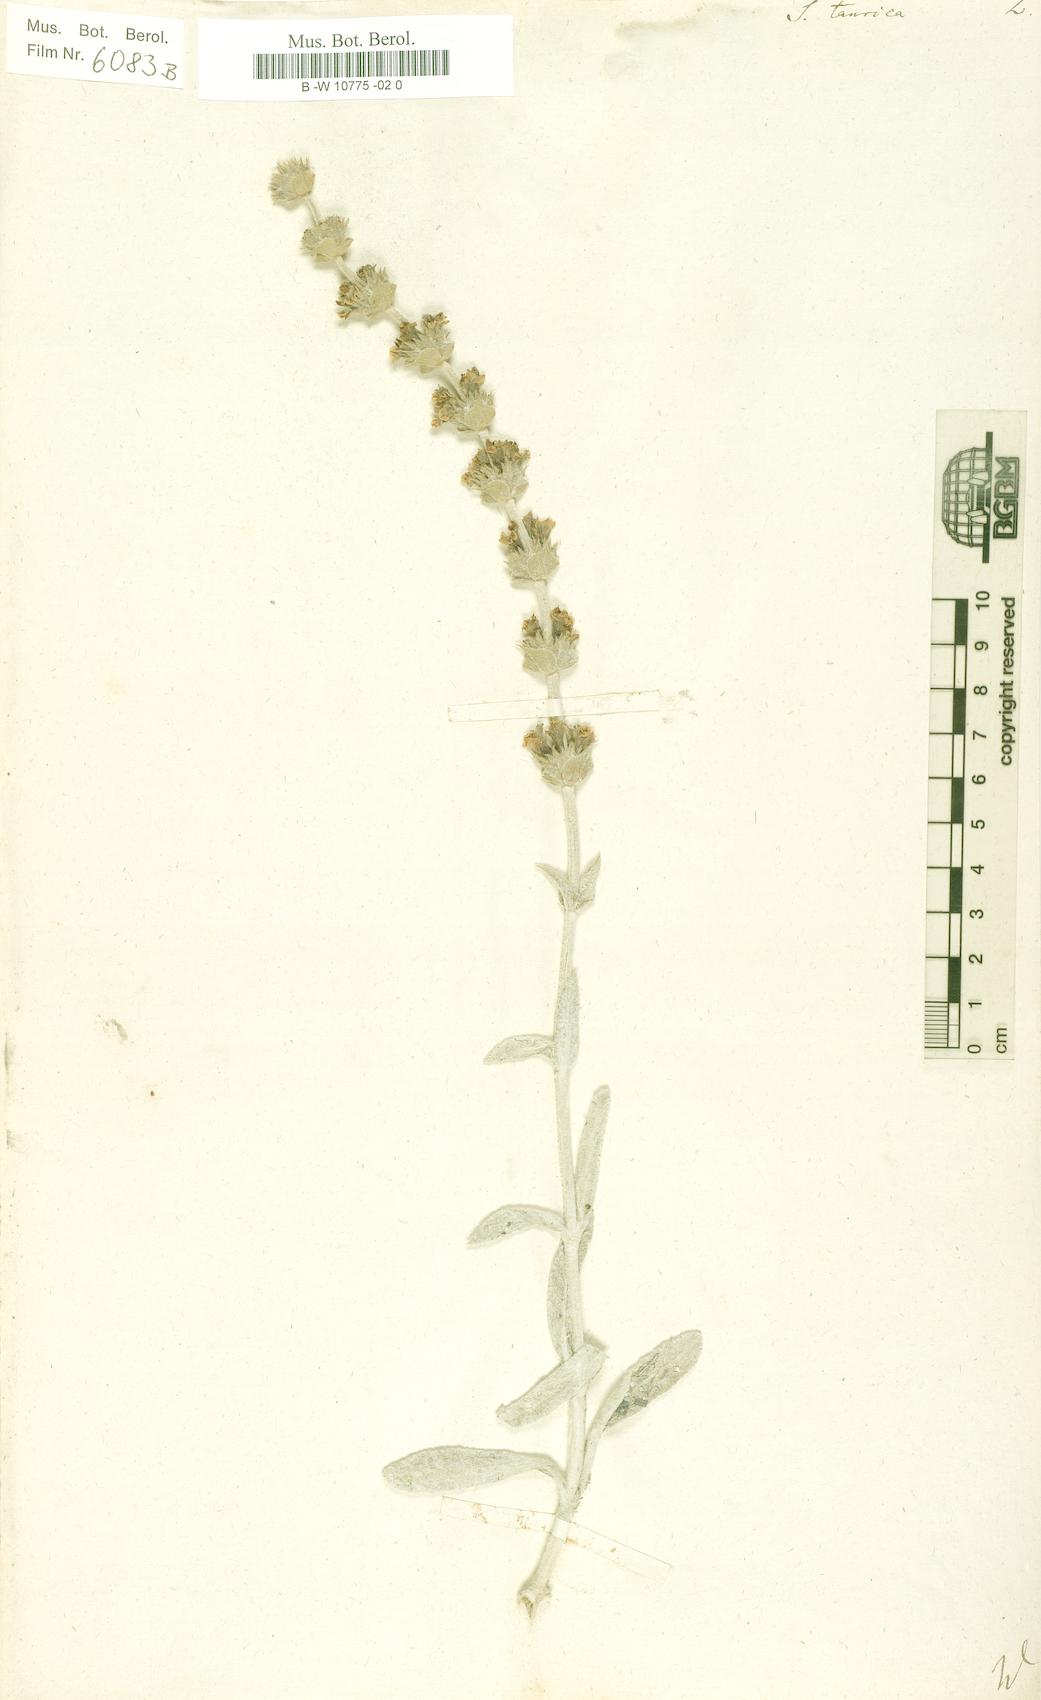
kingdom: Plantae
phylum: Tracheophyta
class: Magnoliopsida
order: Lamiales
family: Lamiaceae
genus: Sideritis
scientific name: Sideritis taurica
